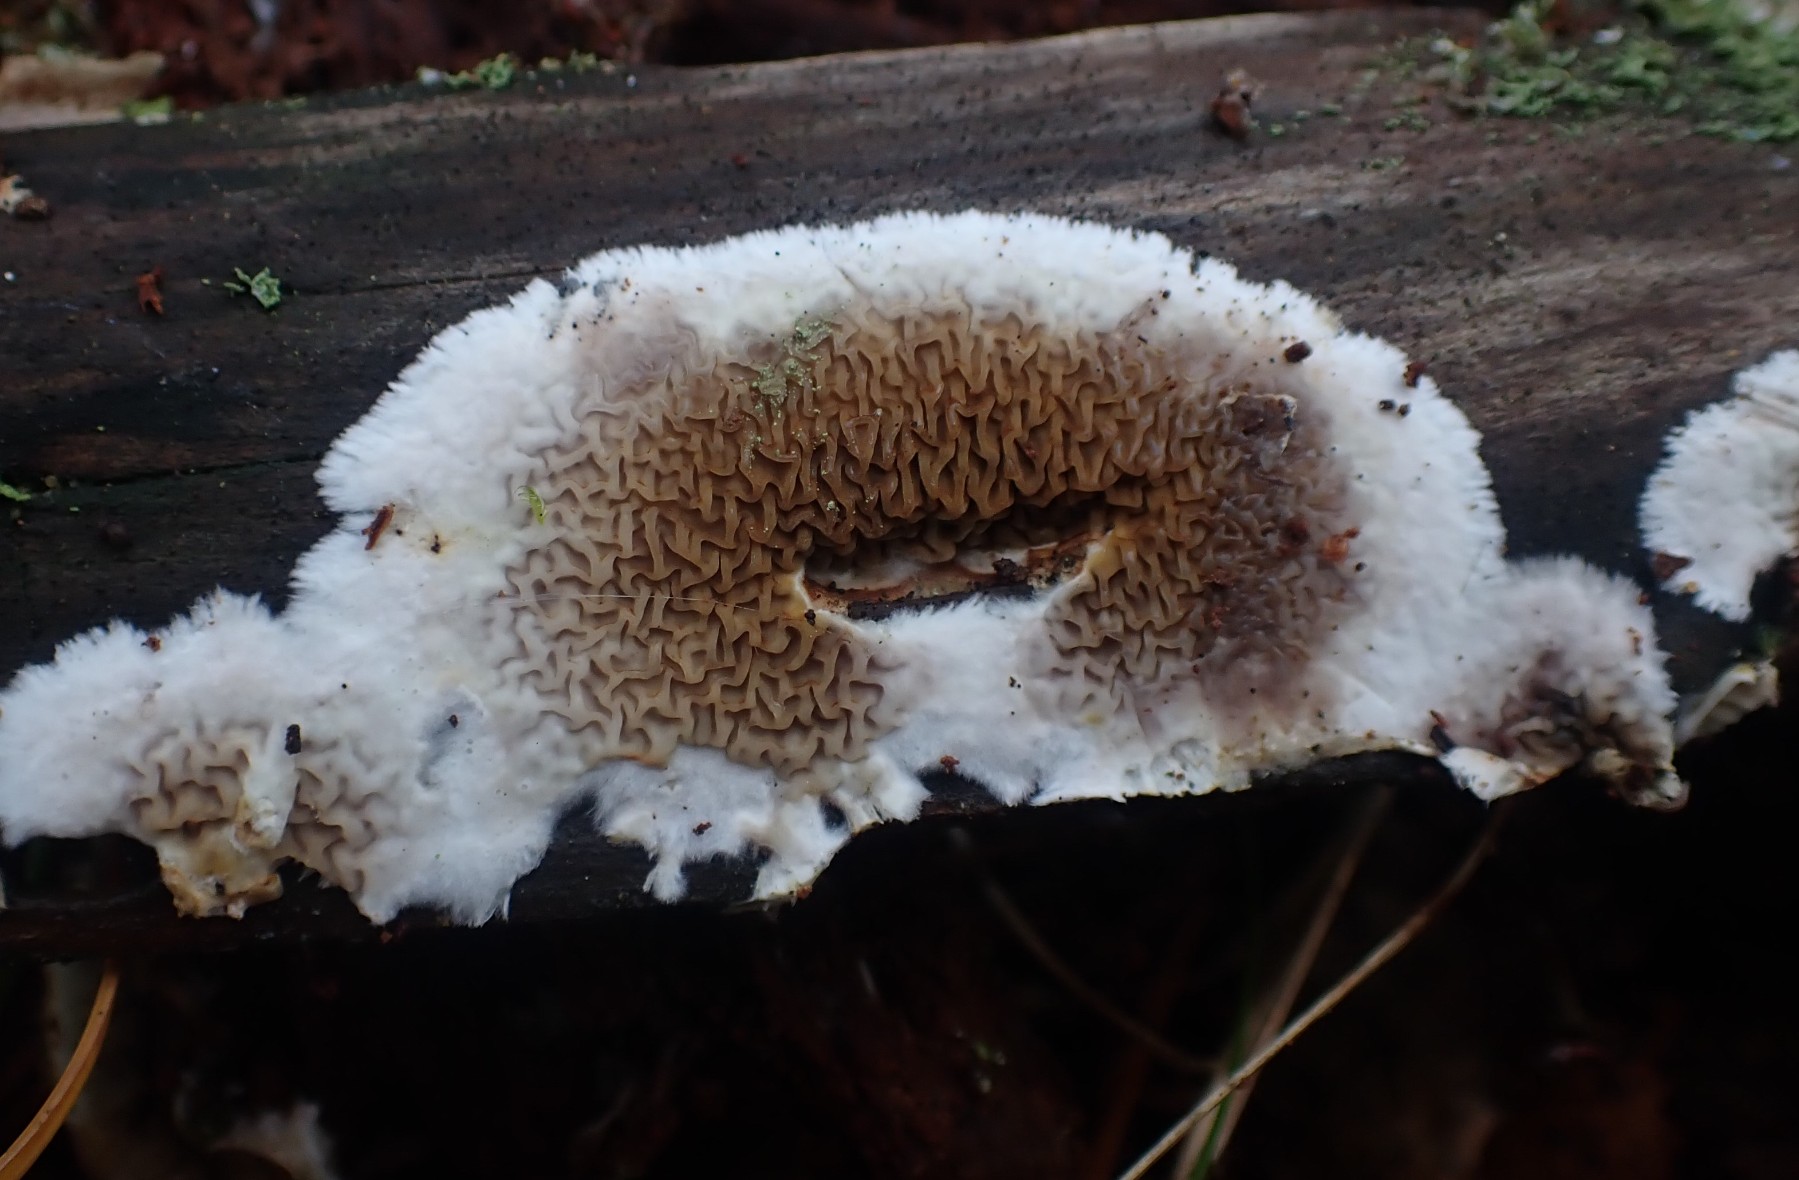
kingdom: Fungi
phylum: Basidiomycota
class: Agaricomycetes
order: Boletales
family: Serpulaceae
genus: Serpula
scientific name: Serpula himantioides
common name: tyndkødet hussvamp
